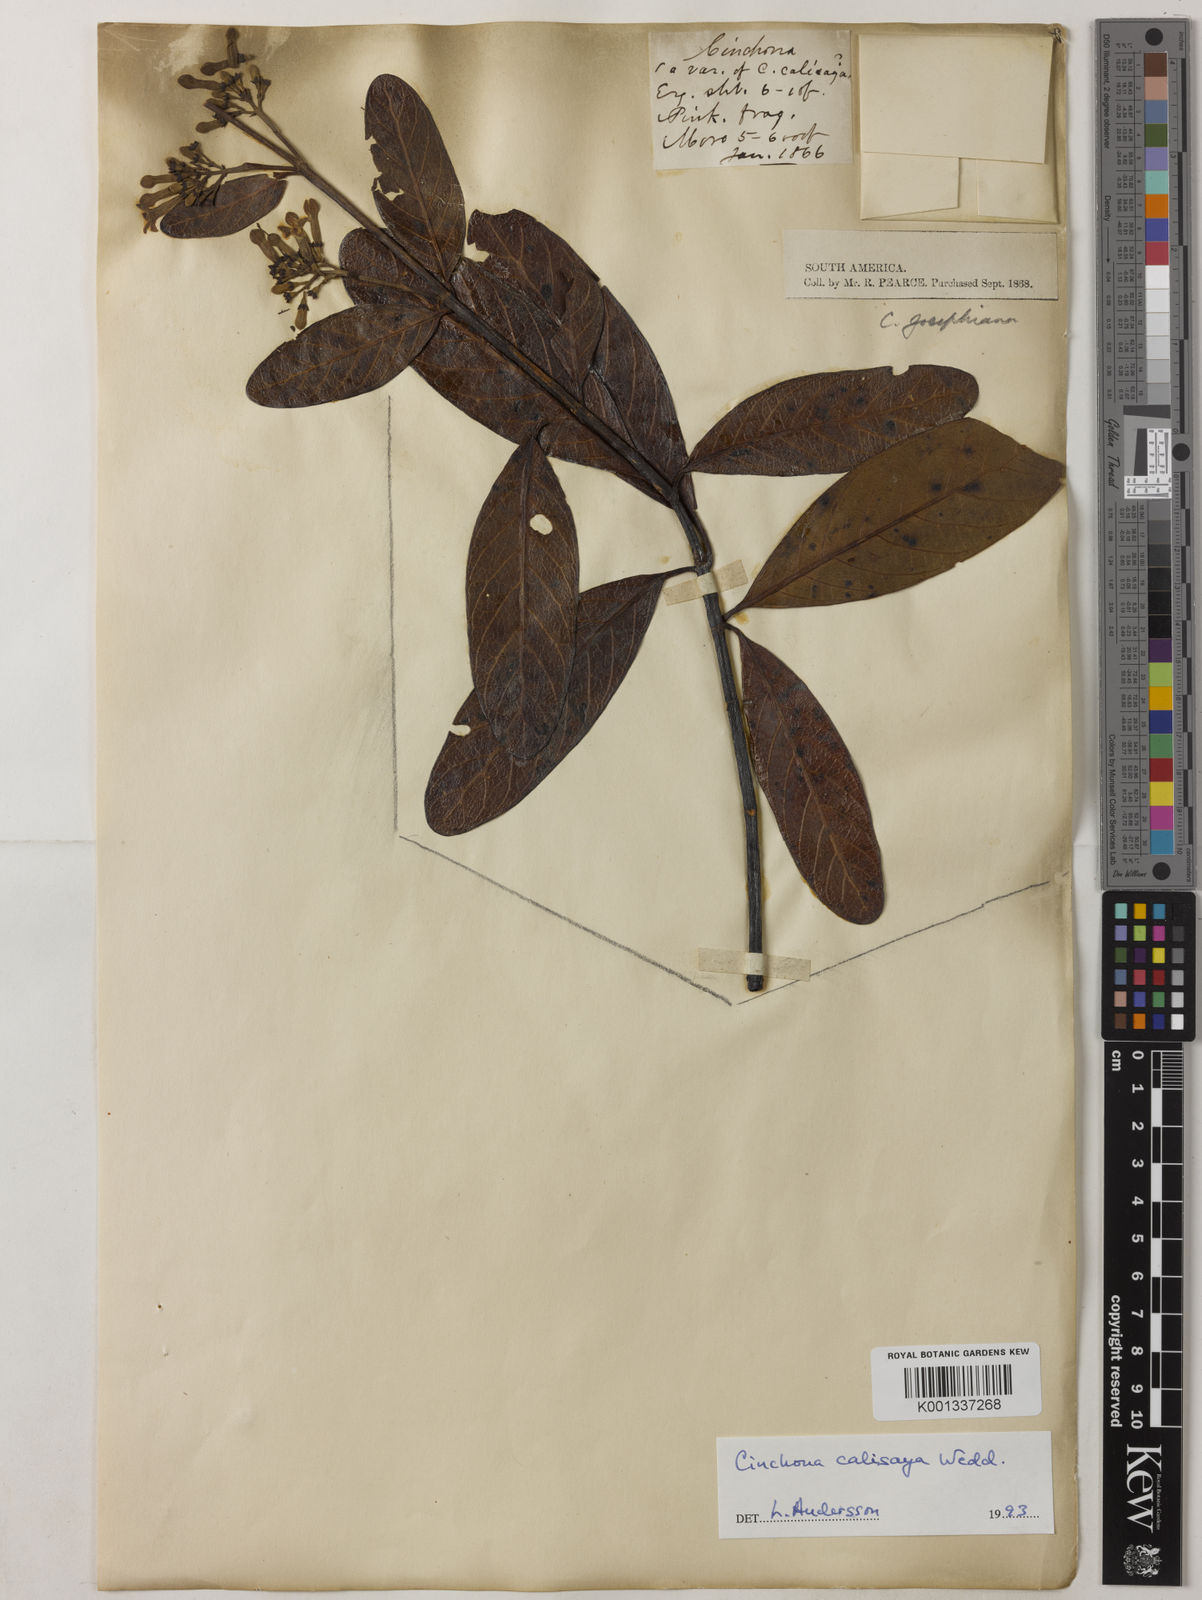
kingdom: Plantae
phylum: Tracheophyta
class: Magnoliopsida
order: Gentianales
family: Rubiaceae
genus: Cinchona
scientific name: Cinchona calisaya
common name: Ledgerbark
